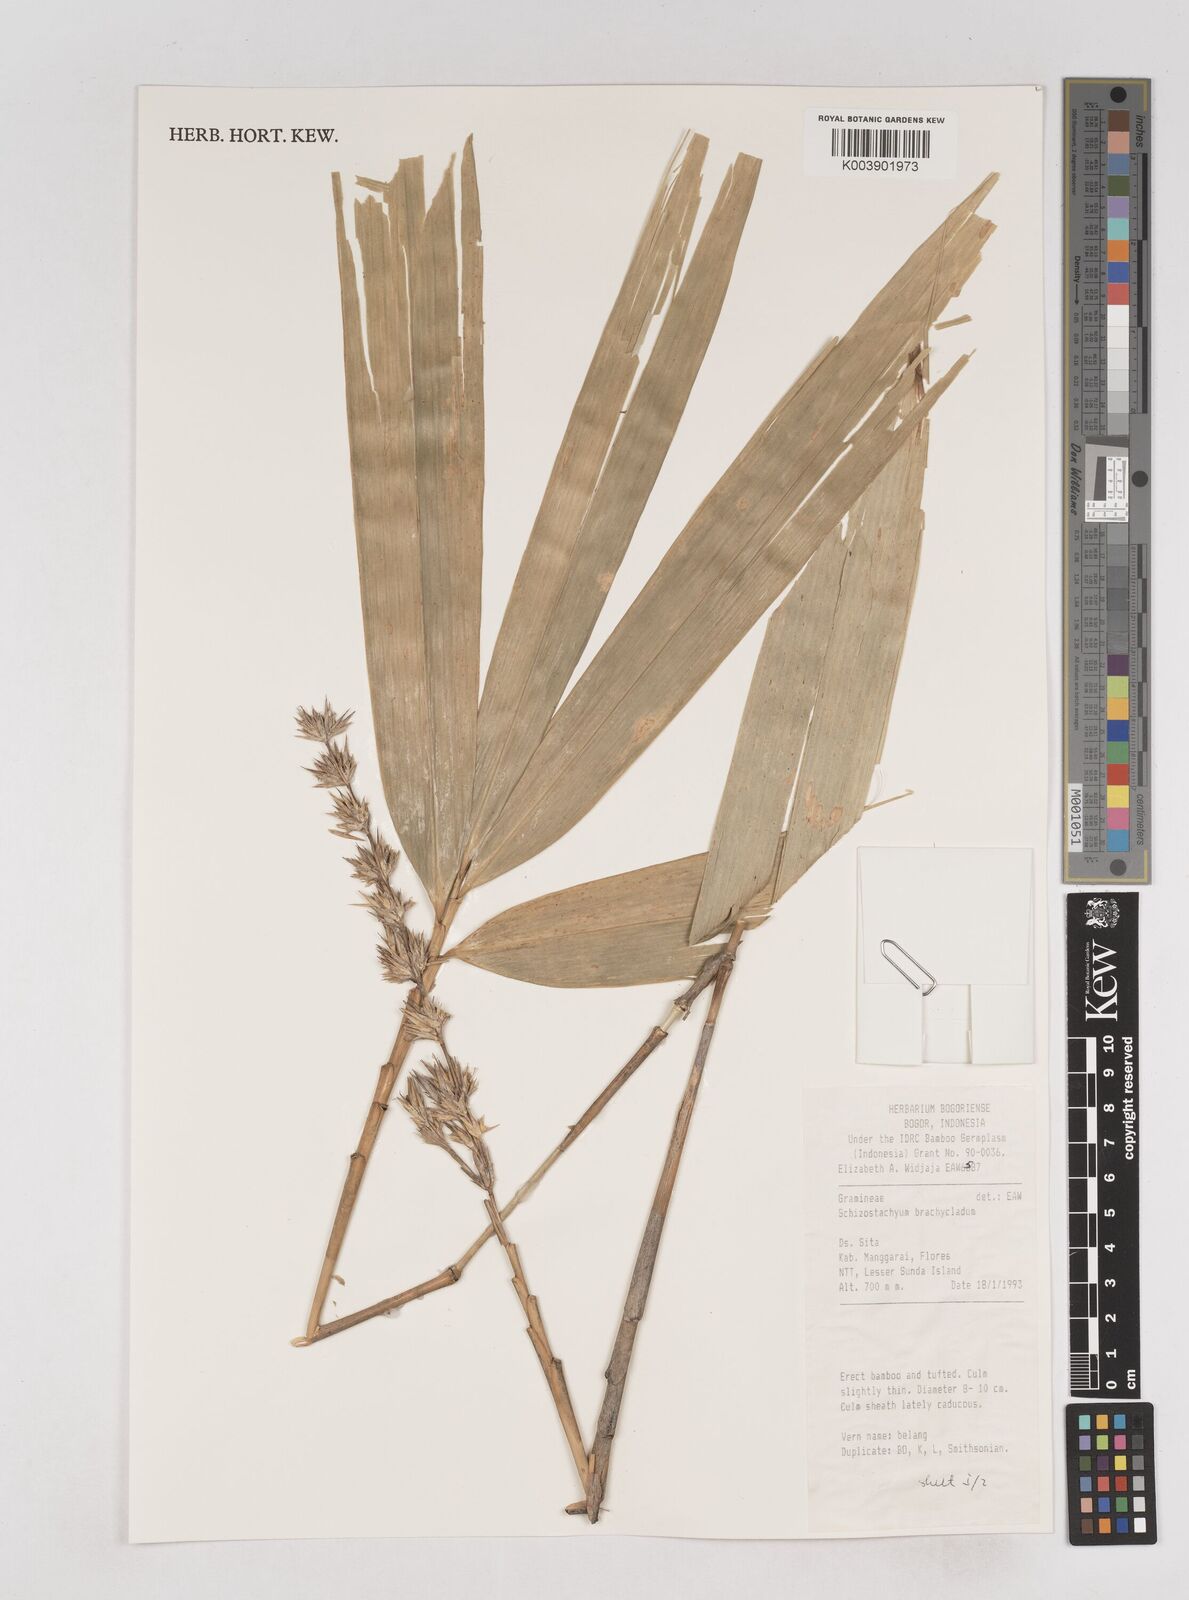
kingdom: Plantae
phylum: Tracheophyta
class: Liliopsida
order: Poales
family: Poaceae
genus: Schizostachyum
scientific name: Schizostachyum brachycladum
